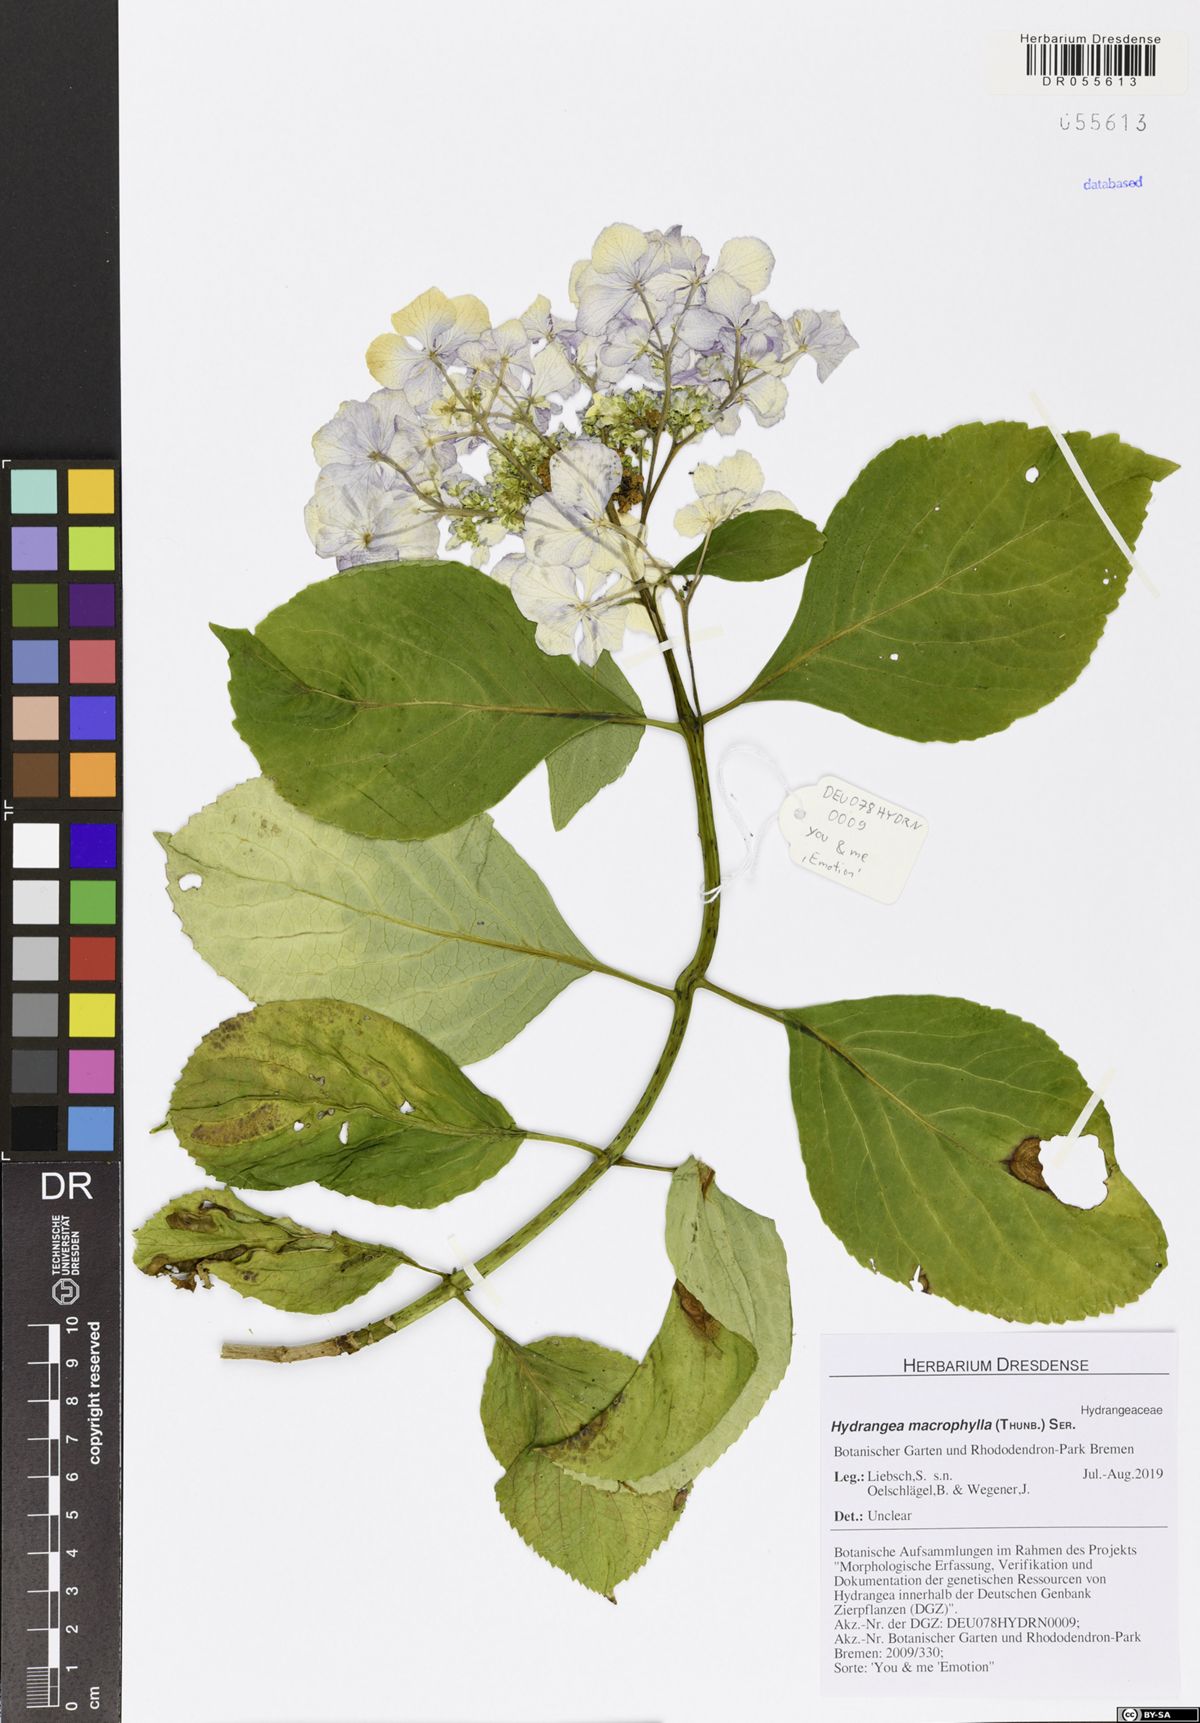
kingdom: Plantae
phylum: Tracheophyta
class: Magnoliopsida
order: Cornales
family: Hydrangeaceae
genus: Hydrangea
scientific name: Hydrangea macrophylla
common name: Hydrangea
